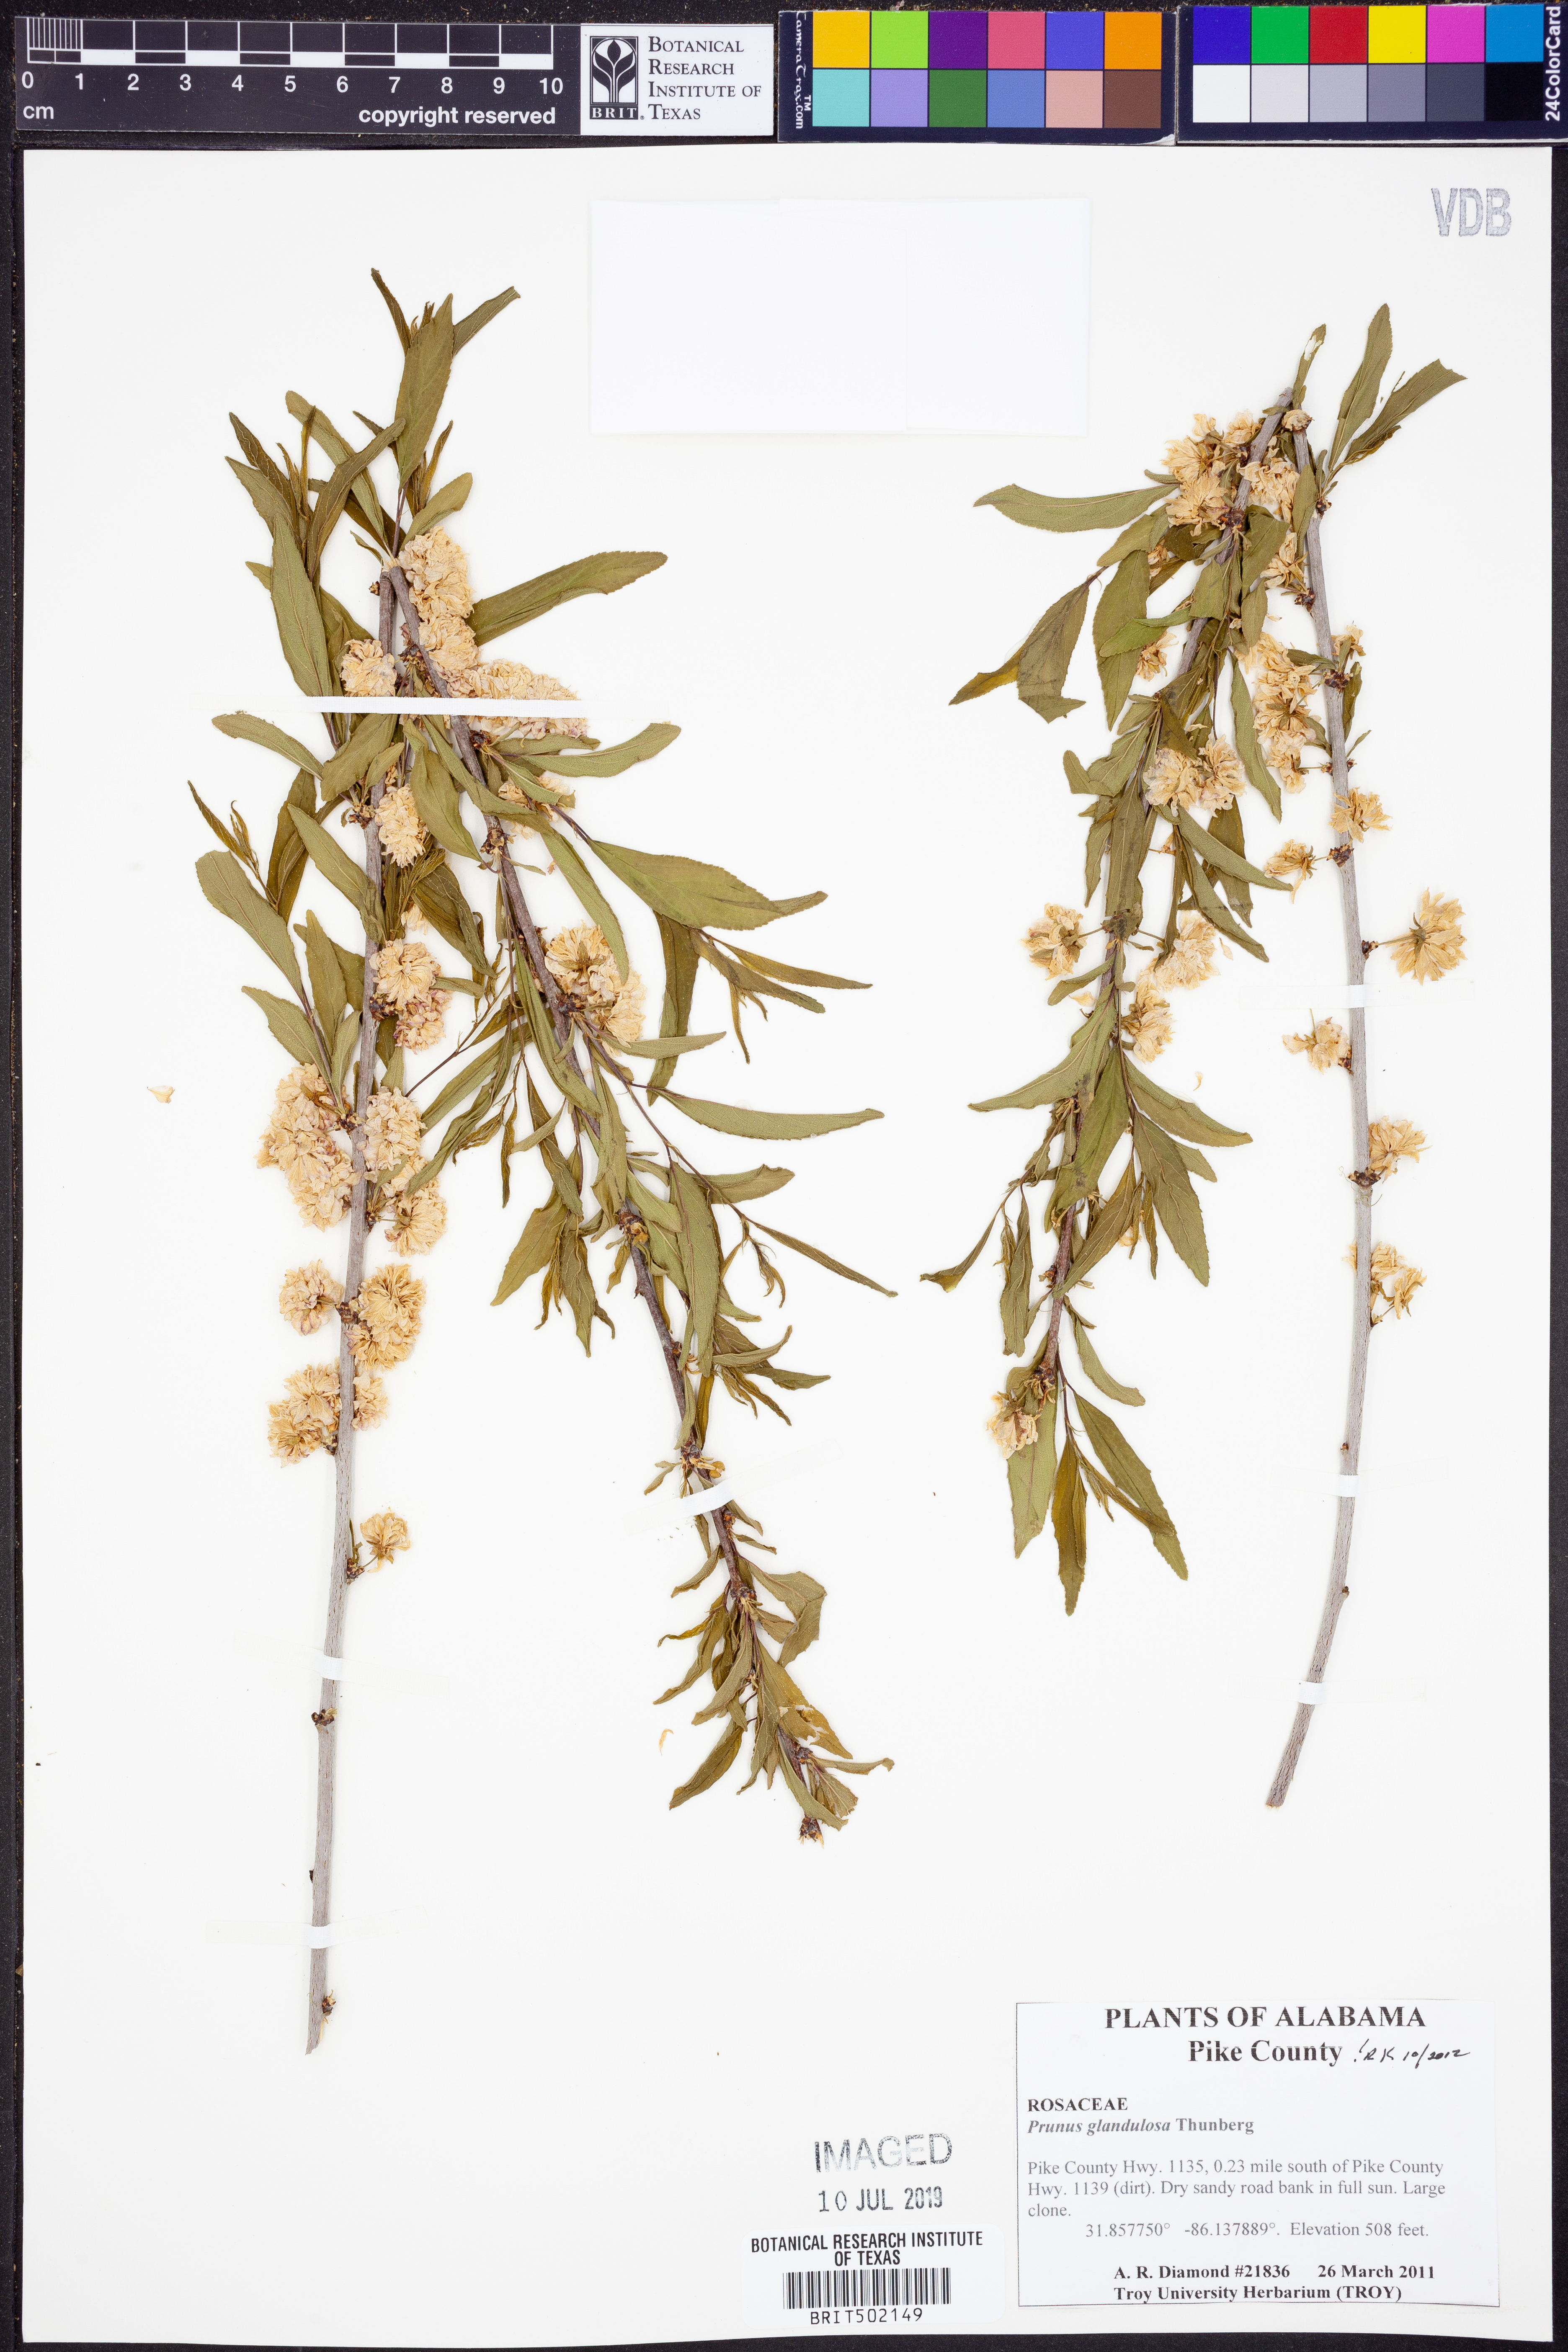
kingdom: Plantae
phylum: Tracheophyta
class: Magnoliopsida
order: Rosales
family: Rosaceae
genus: Prunus
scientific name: Prunus glandulosa
